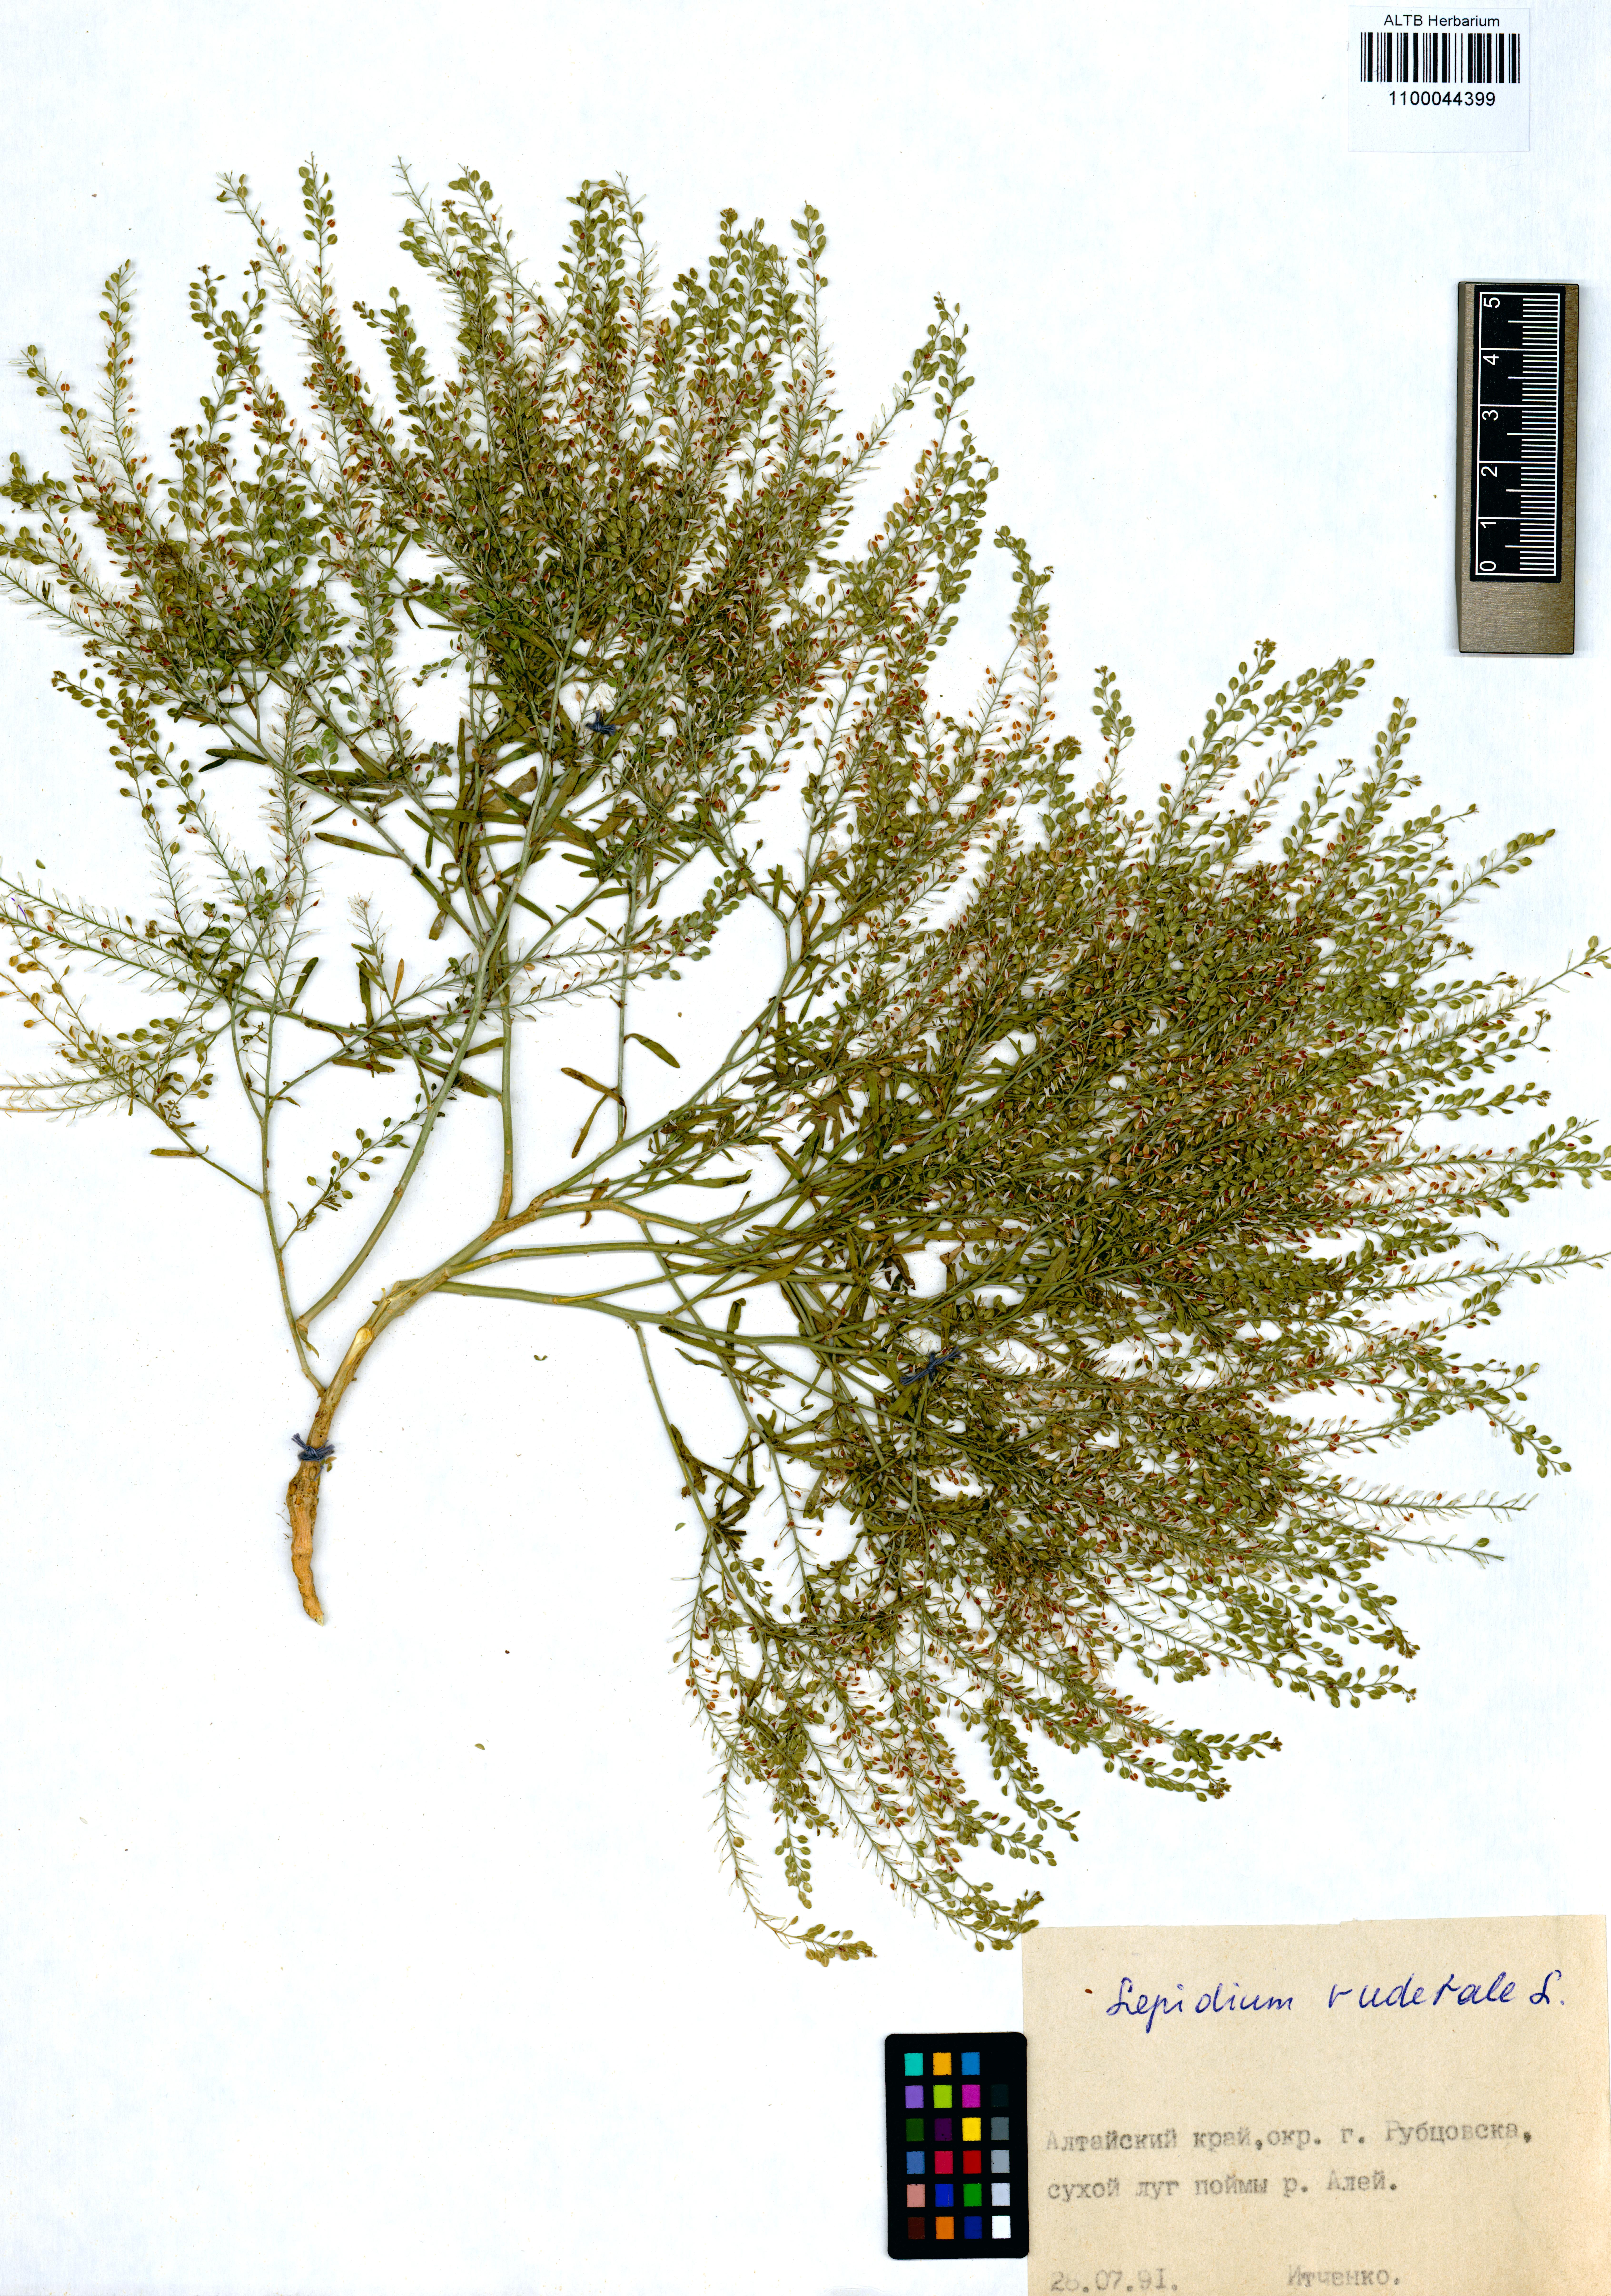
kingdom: Plantae
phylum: Tracheophyta
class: Magnoliopsida
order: Brassicales
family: Brassicaceae
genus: Lepidium
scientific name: Lepidium ruderale
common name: Narrow-leaved pepperwort
